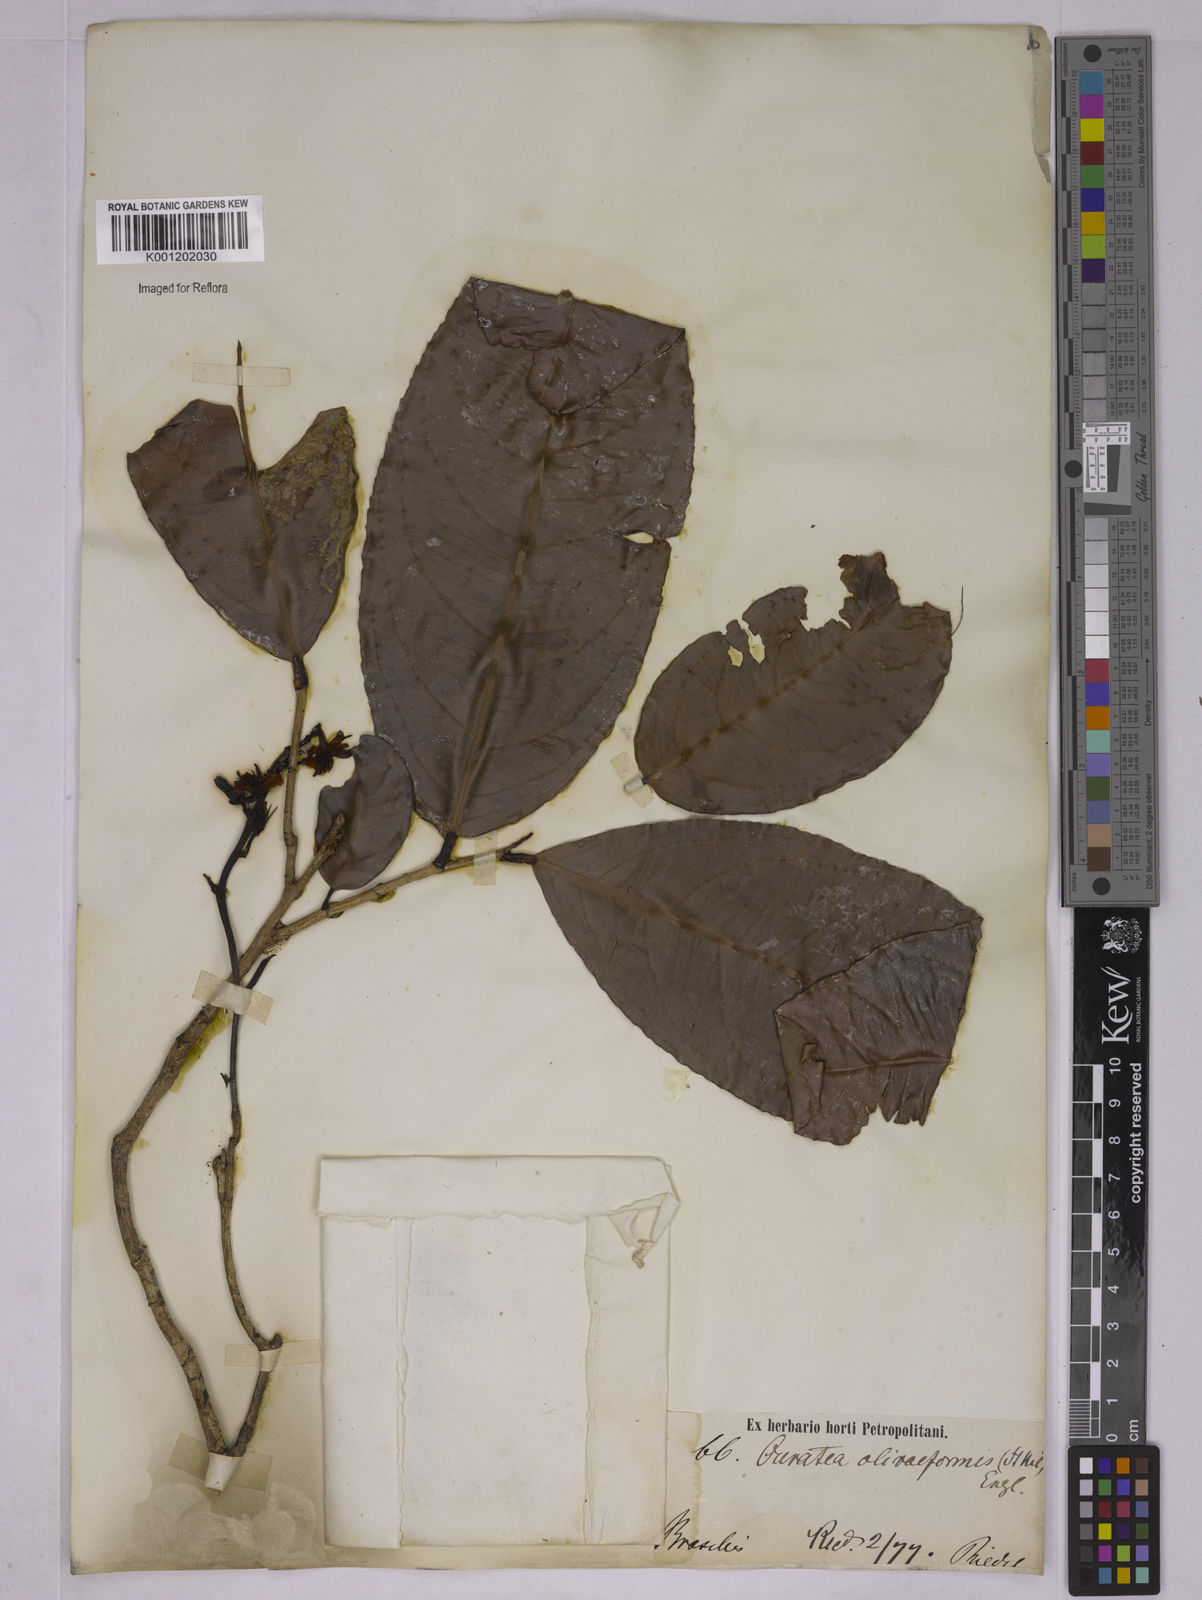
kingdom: Plantae
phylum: Tracheophyta
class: Magnoliopsida
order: Malpighiales
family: Ochnaceae
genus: Ouratea
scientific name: Ouratea oliviformis
